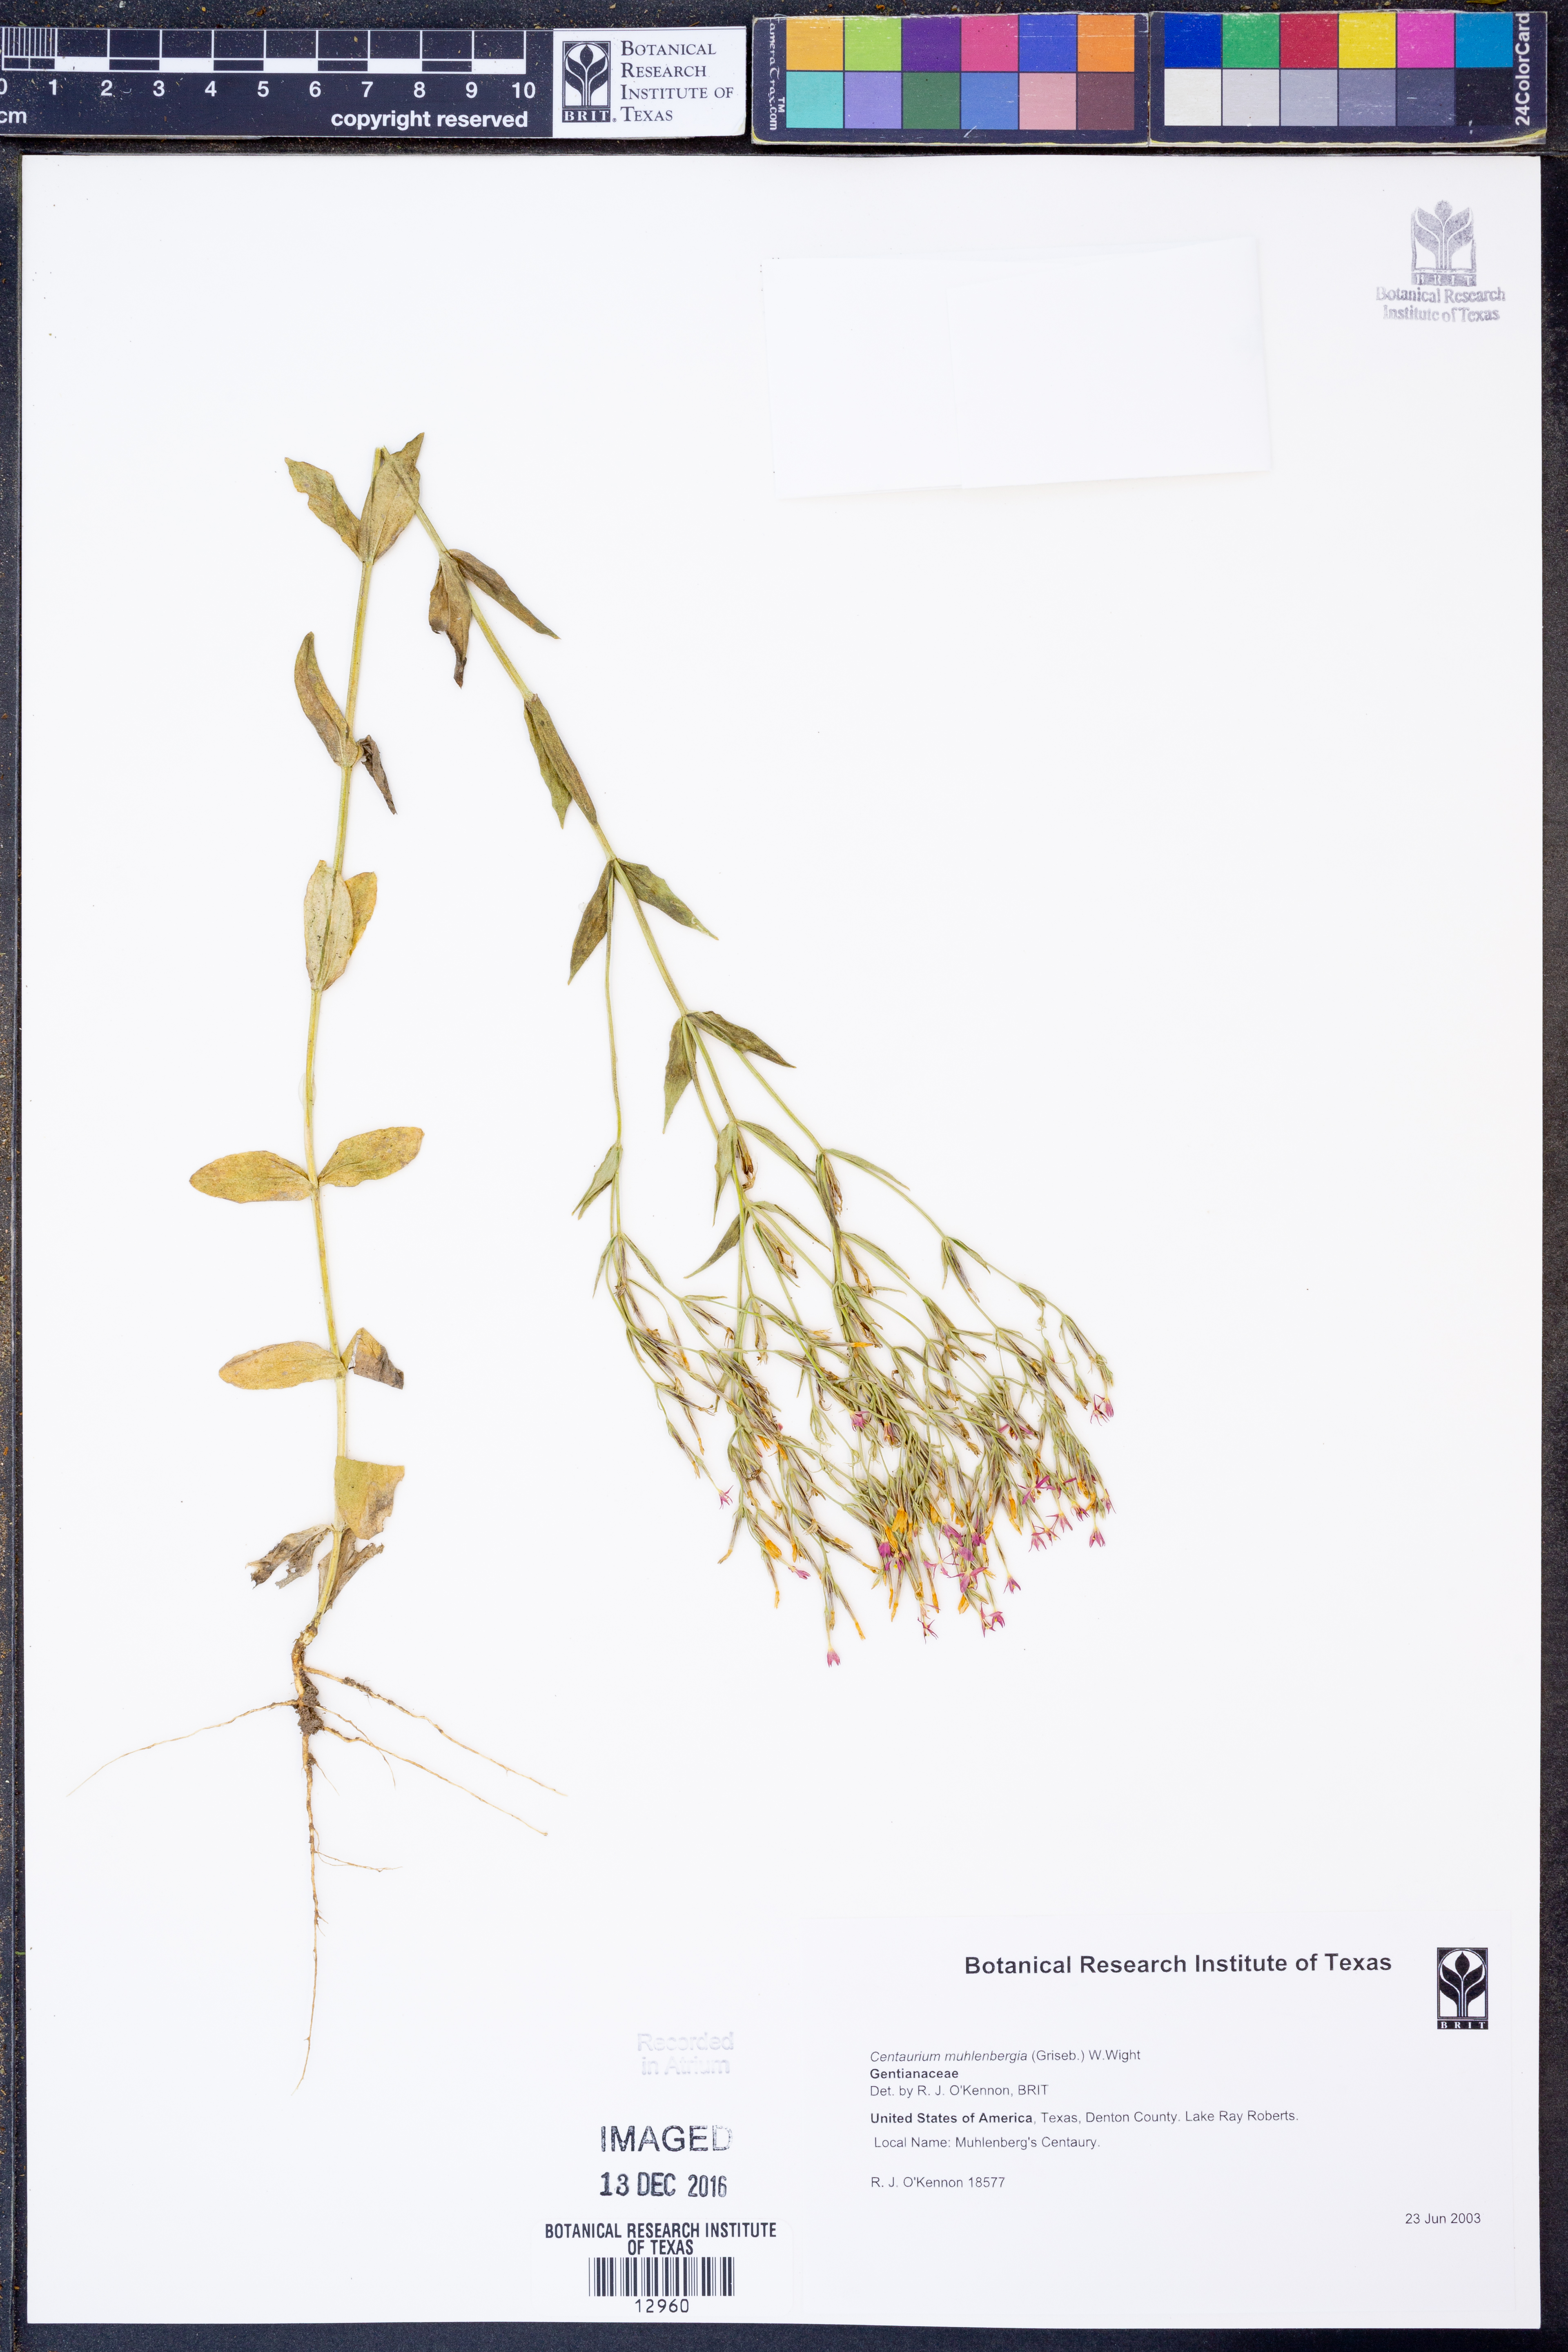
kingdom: Plantae
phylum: Tracheophyta
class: Magnoliopsida
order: Gentianales
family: Gentianaceae
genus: Zeltnera
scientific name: Zeltnera muhlenbergii
